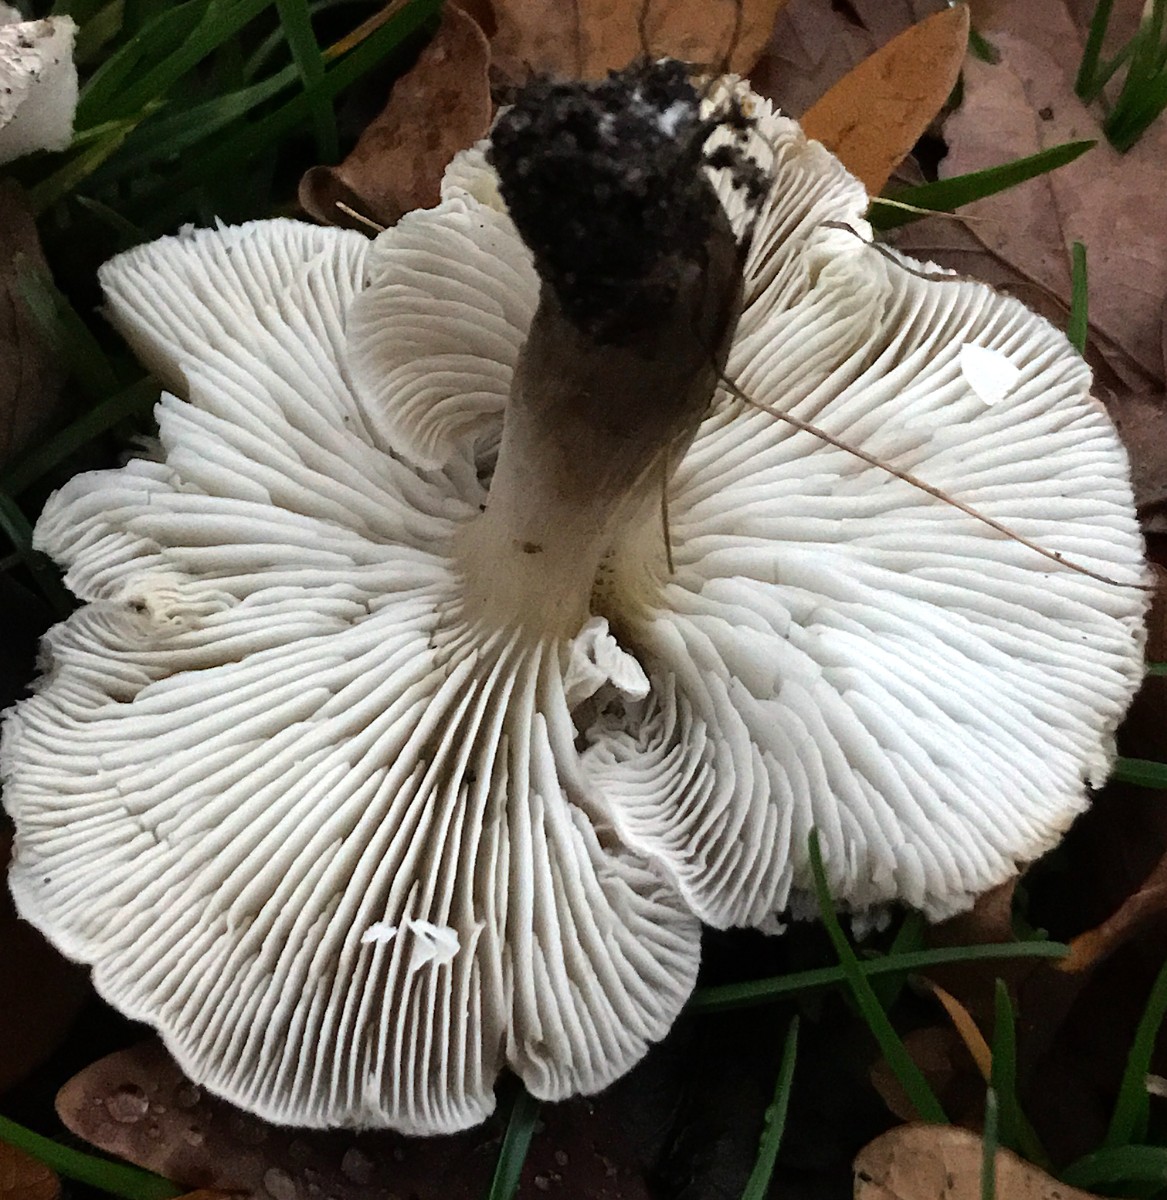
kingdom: Fungi
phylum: Basidiomycota
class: Agaricomycetes
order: Agaricales
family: Tricholomataceae
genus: Tricholoma
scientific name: Tricholoma scalpturatum
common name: gulplettet ridderhat
